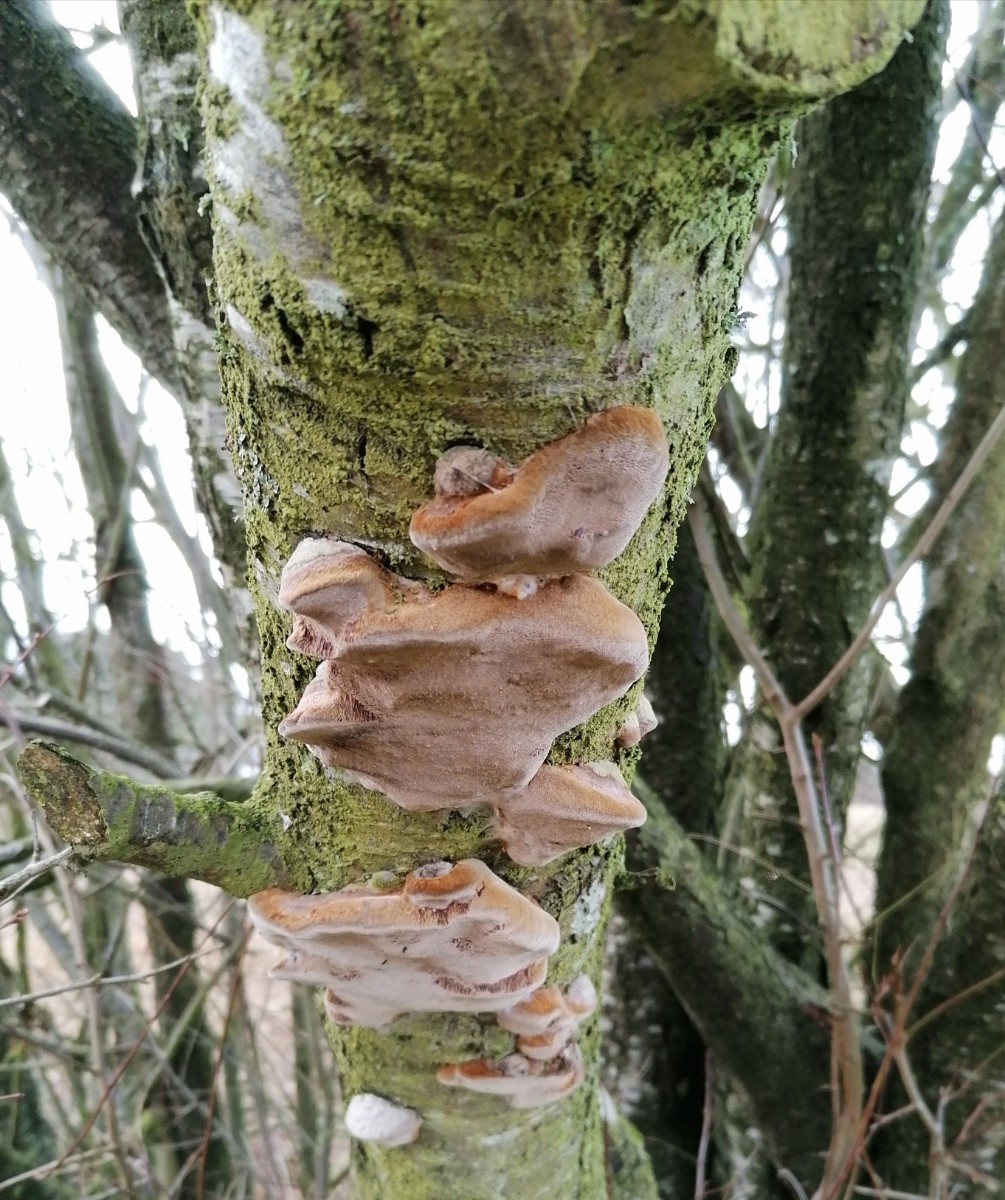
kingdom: Fungi
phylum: Basidiomycota
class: Agaricomycetes
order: Hymenochaetales
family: Hymenochaetaceae
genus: Phellinus
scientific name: Phellinus pomaceus
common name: blomme-ildporesvamp
